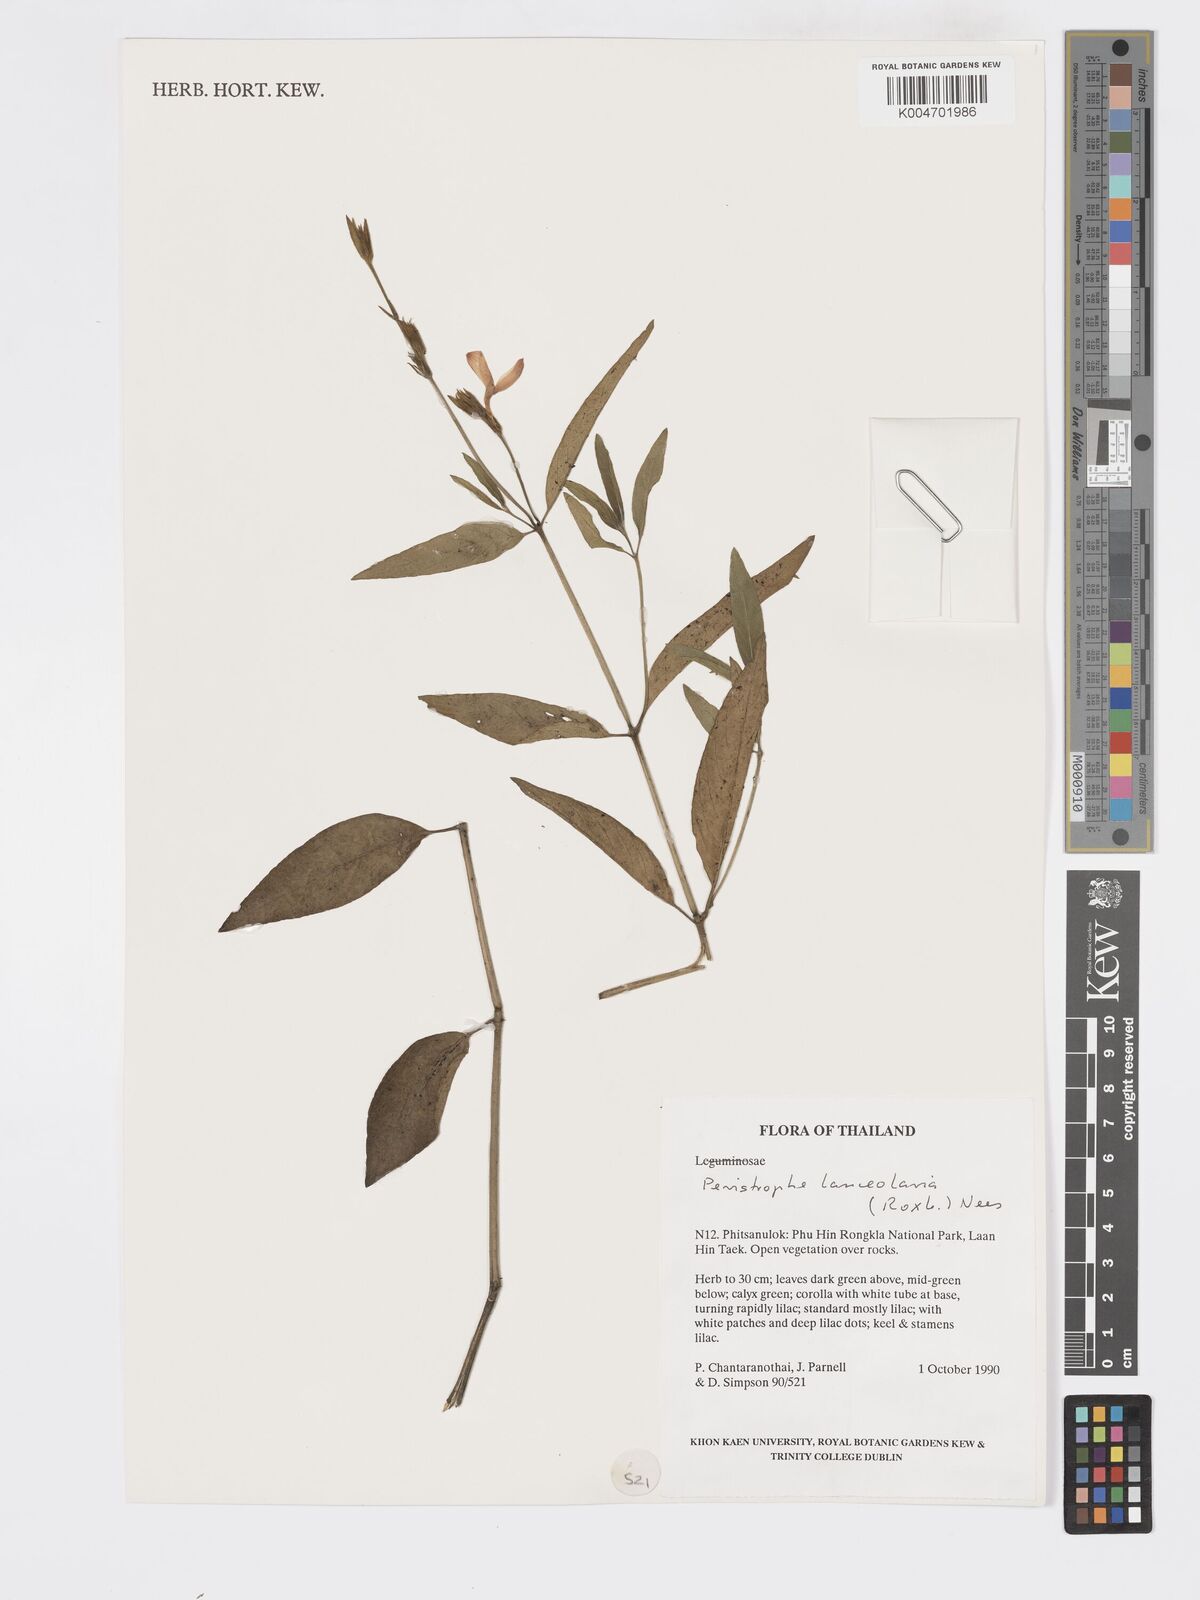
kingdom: Plantae
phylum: Tracheophyta
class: Magnoliopsida
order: Lamiales
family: Acanthaceae
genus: Dicliptera
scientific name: Dicliptera lanceolaria
